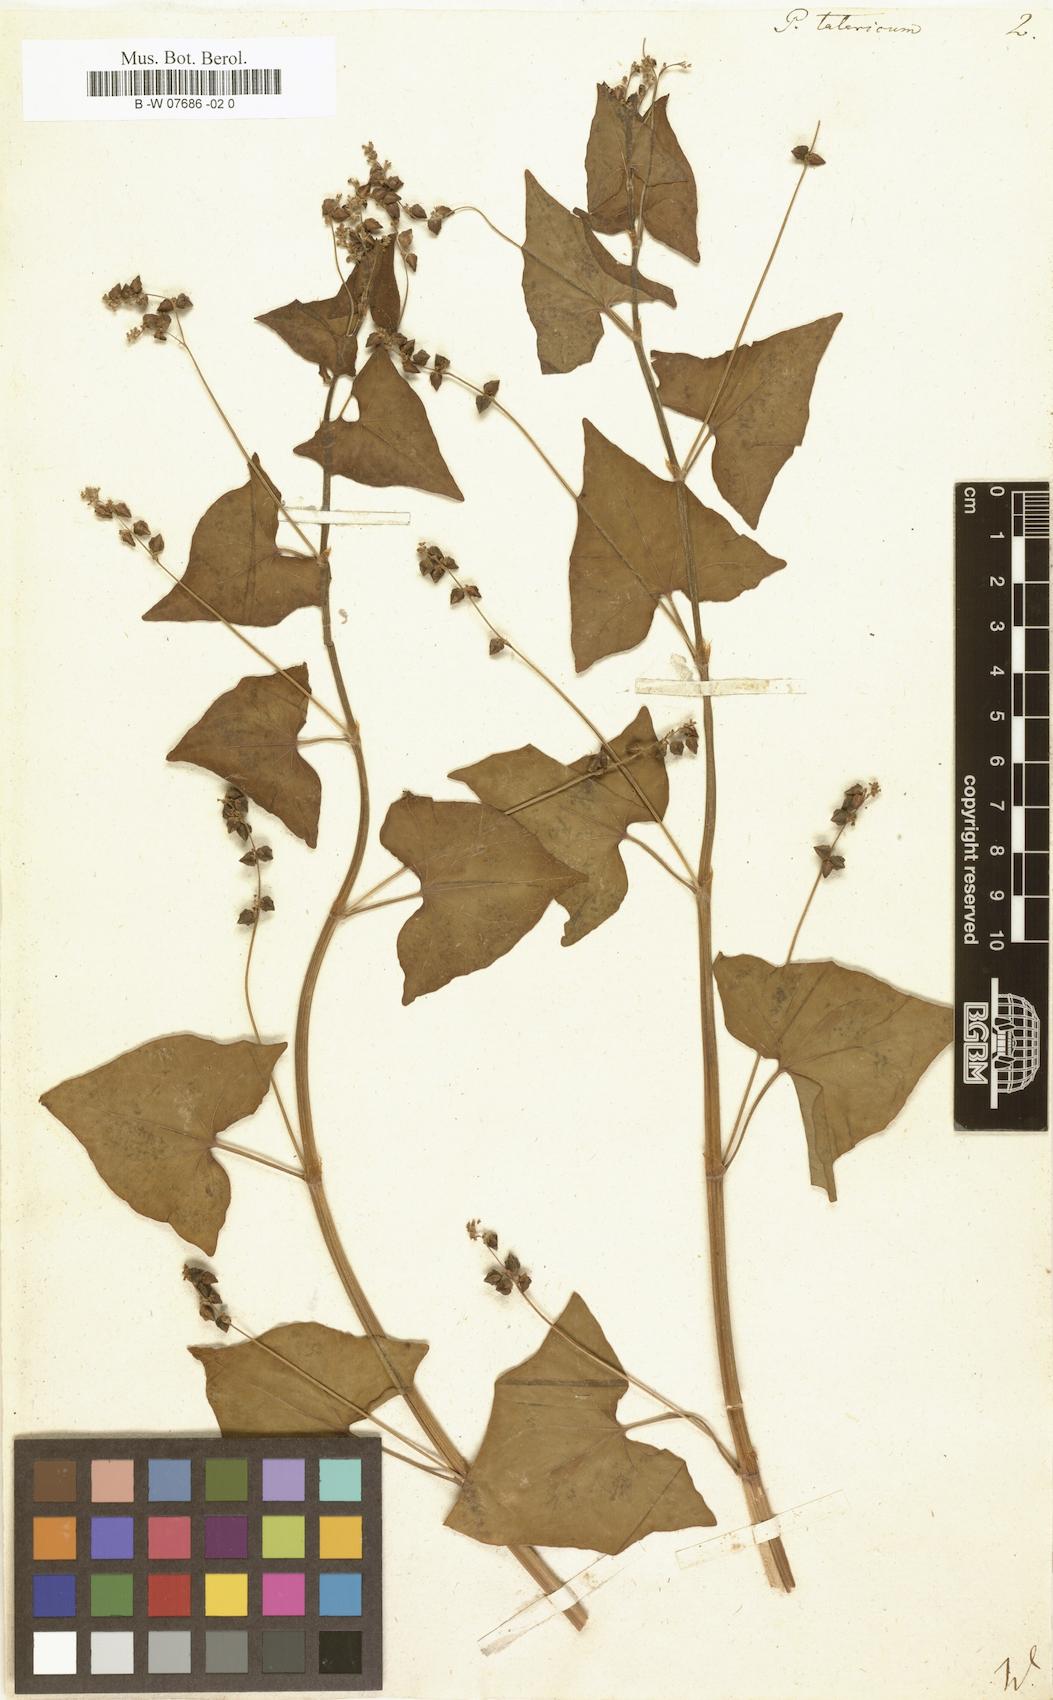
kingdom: Plantae
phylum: Tracheophyta
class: Magnoliopsida
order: Caryophyllales
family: Polygonaceae
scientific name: Polygonaceae
